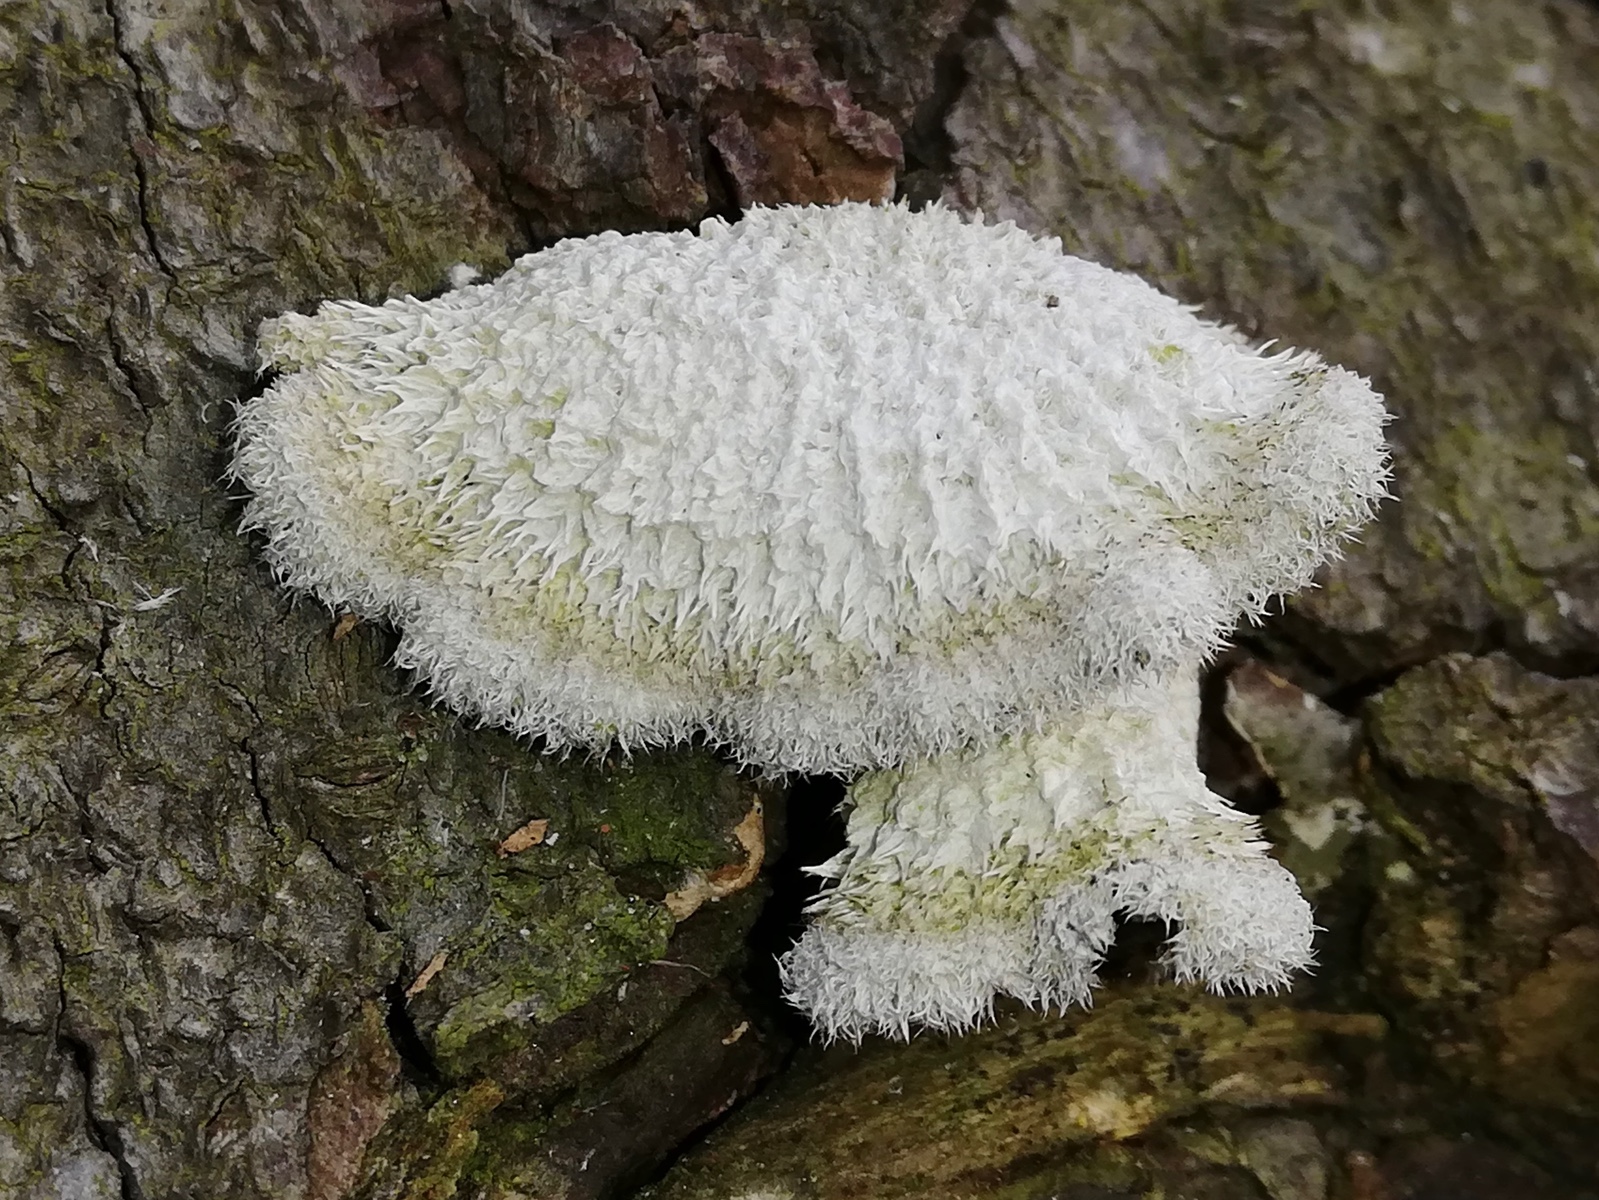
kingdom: Fungi
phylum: Basidiomycota
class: Agaricomycetes
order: Agaricales
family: Schizophyllaceae
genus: Schizophyllum
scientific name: Schizophyllum commune
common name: kløvblad
